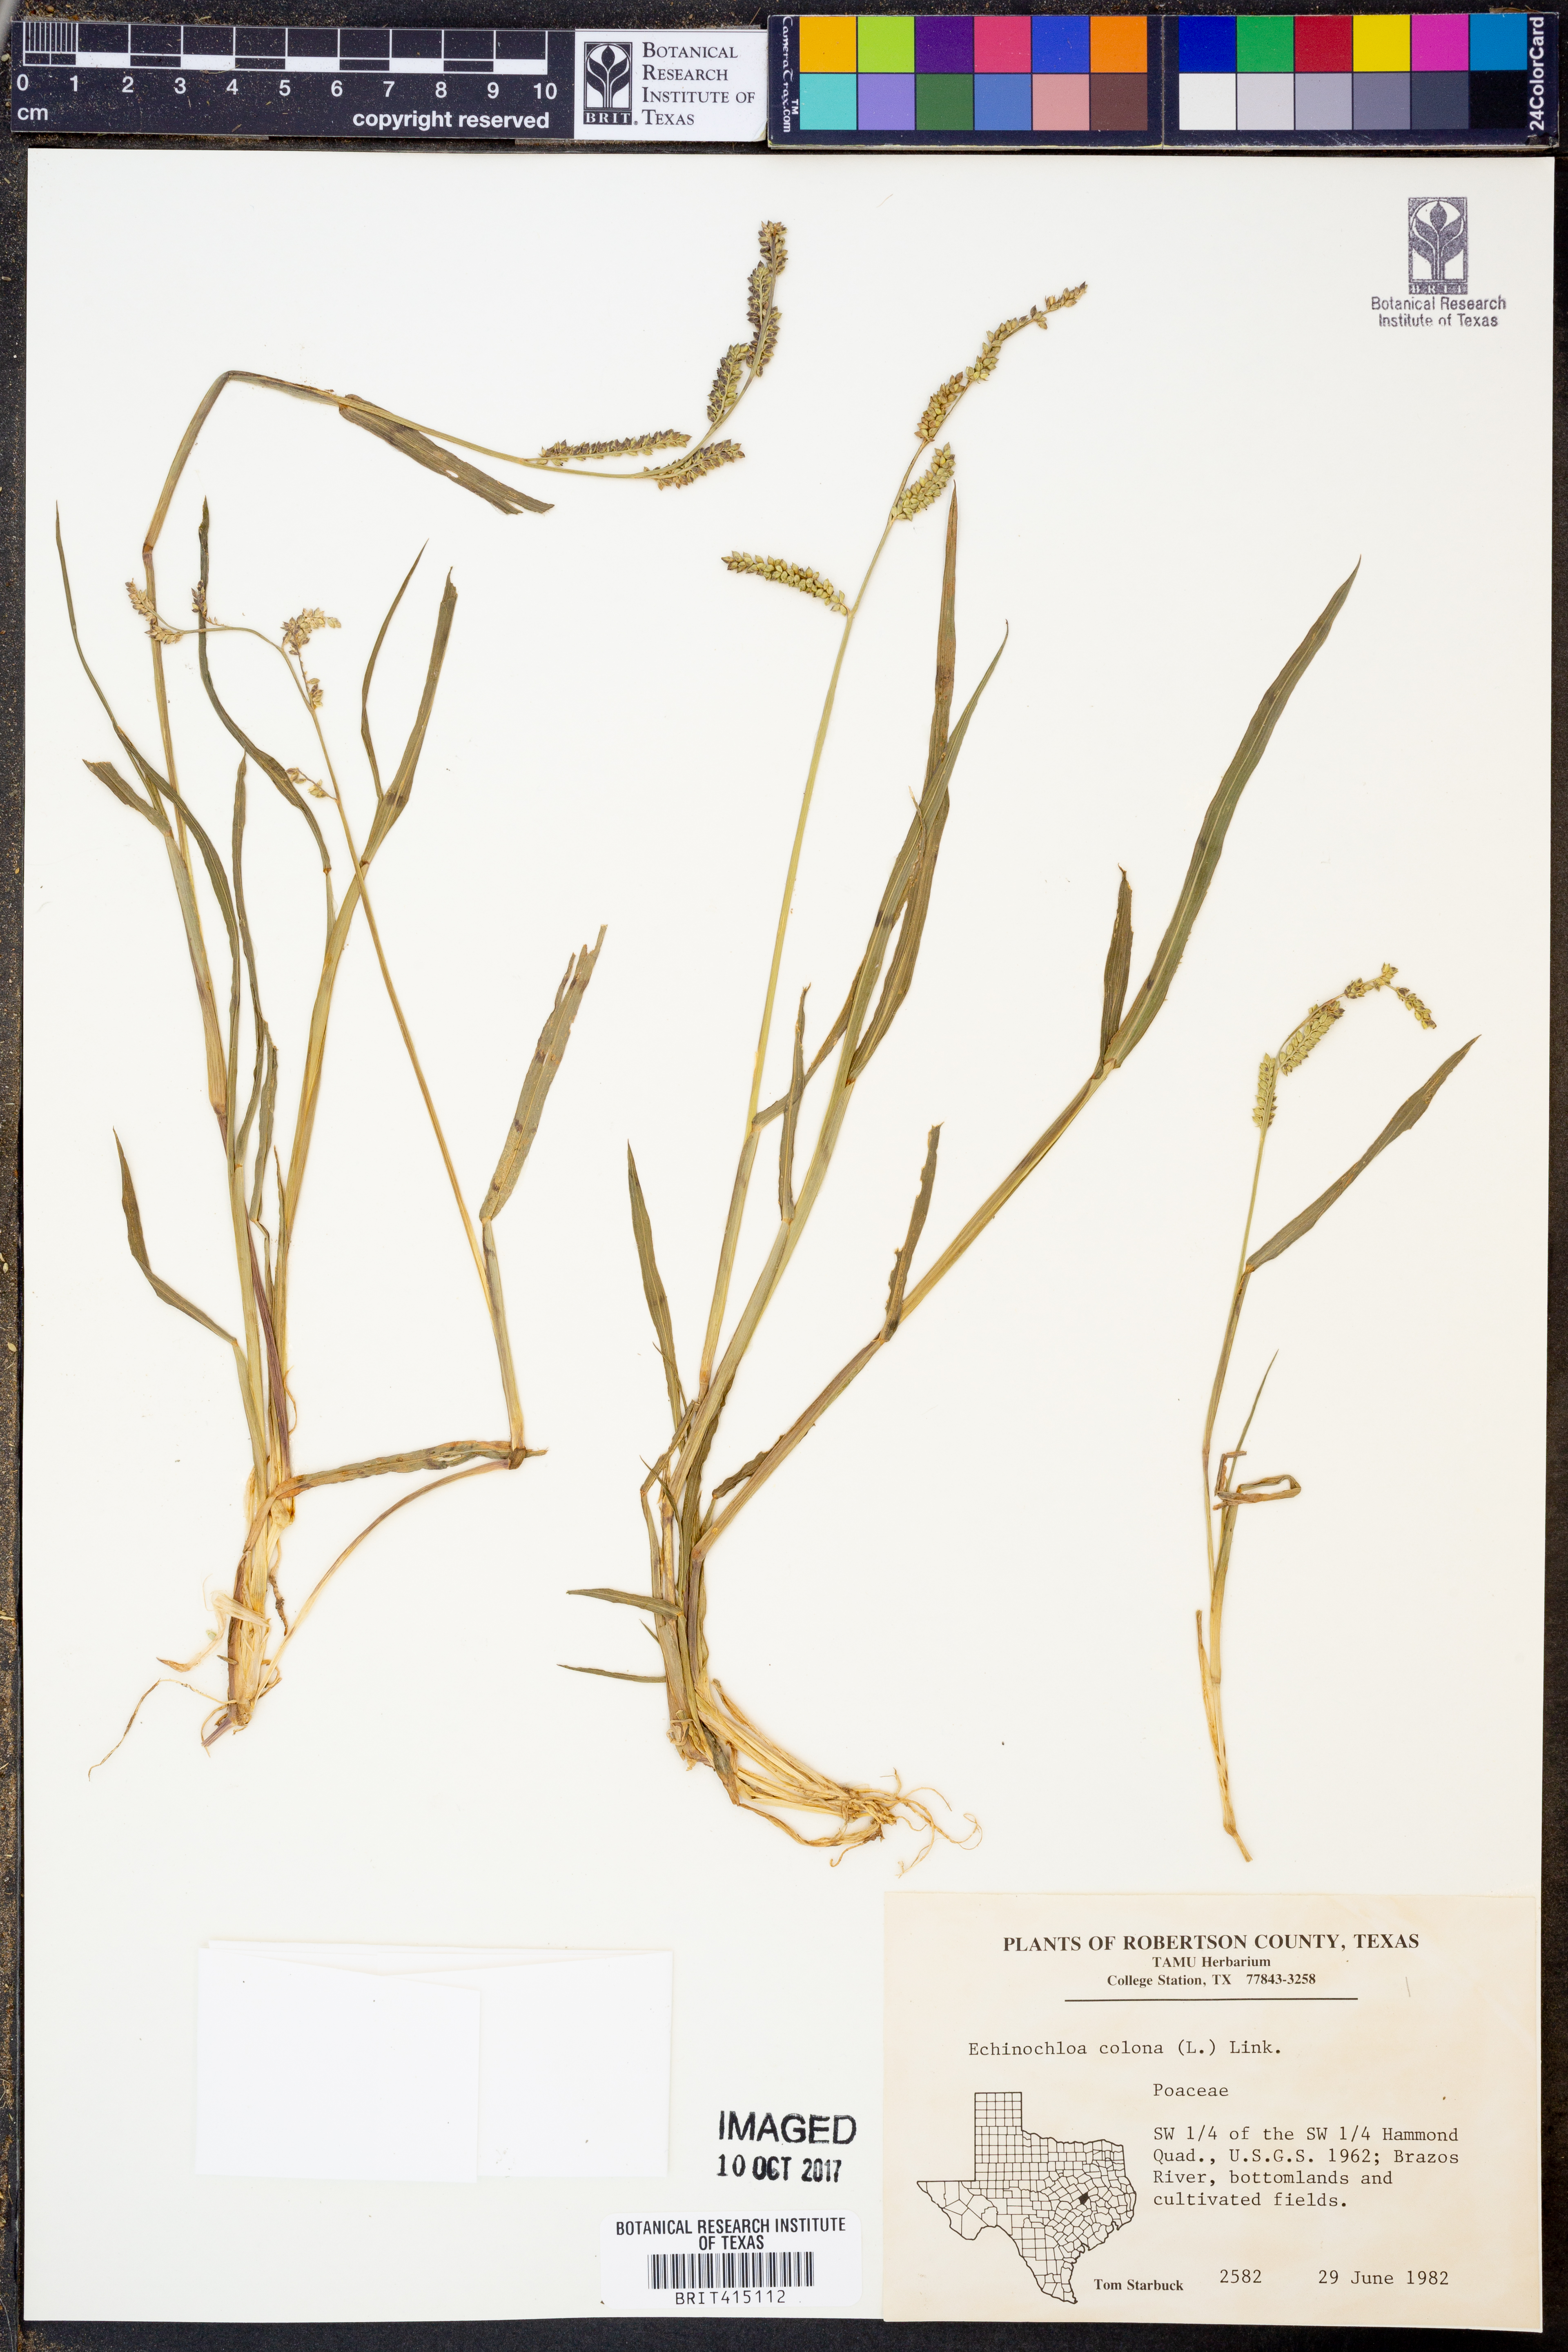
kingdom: Plantae
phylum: Tracheophyta
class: Liliopsida
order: Poales
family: Poaceae
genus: Echinochloa
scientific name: Echinochloa colonum
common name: Jungle rice
